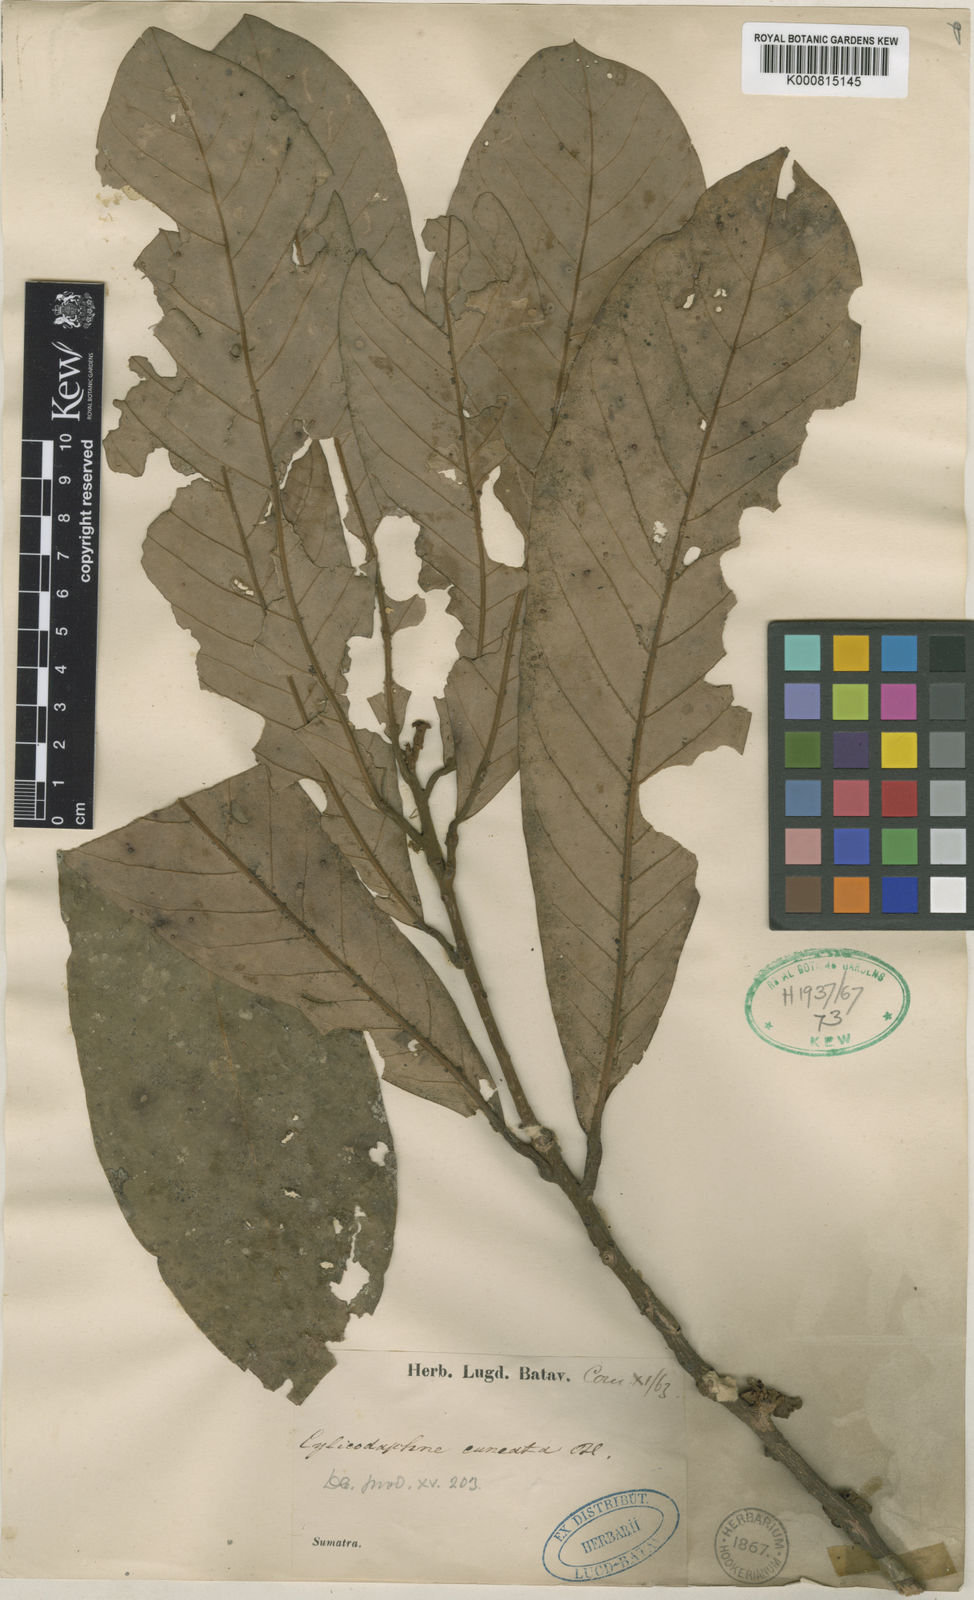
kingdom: Plantae
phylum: Tracheophyta
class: Magnoliopsida
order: Laurales
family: Lauraceae
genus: Litsea
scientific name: Litsea cuneata
